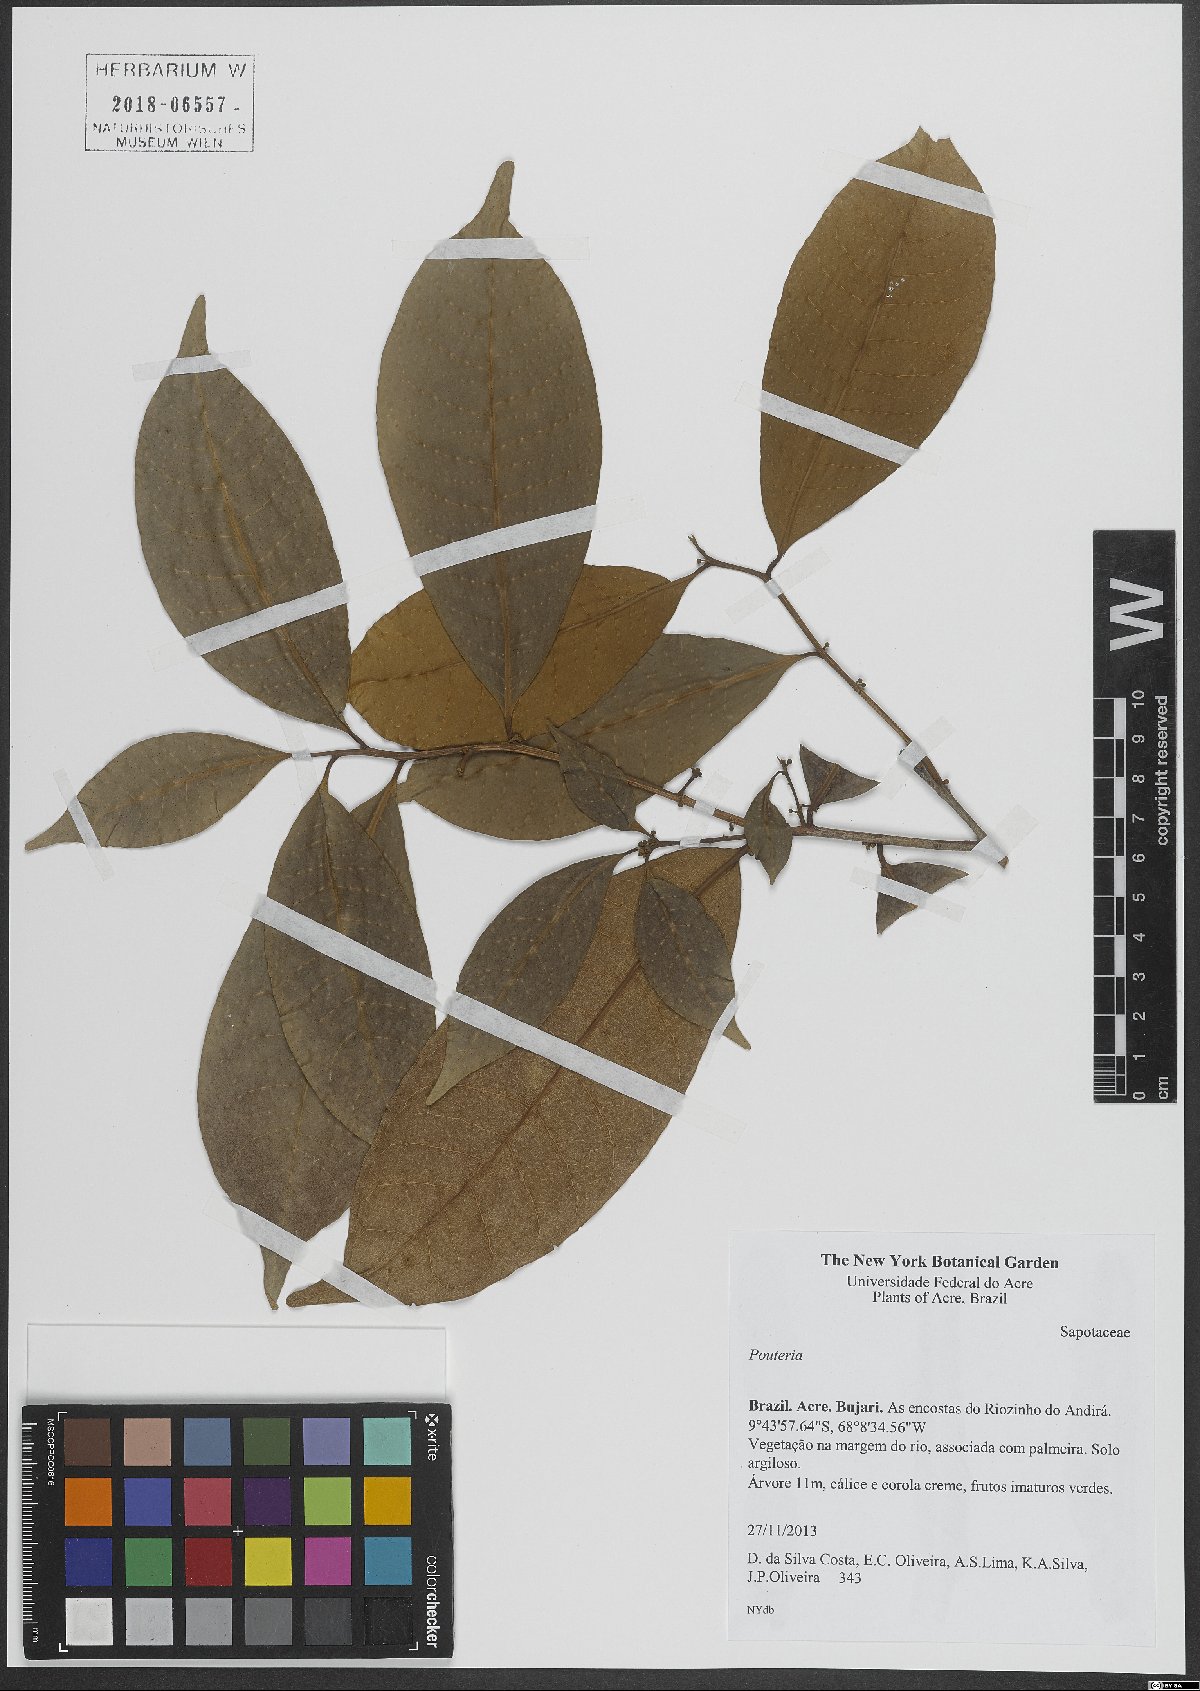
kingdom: Plantae
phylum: Tracheophyta
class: Magnoliopsida
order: Ericales
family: Sapotaceae
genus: Pouteria
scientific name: Pouteria
